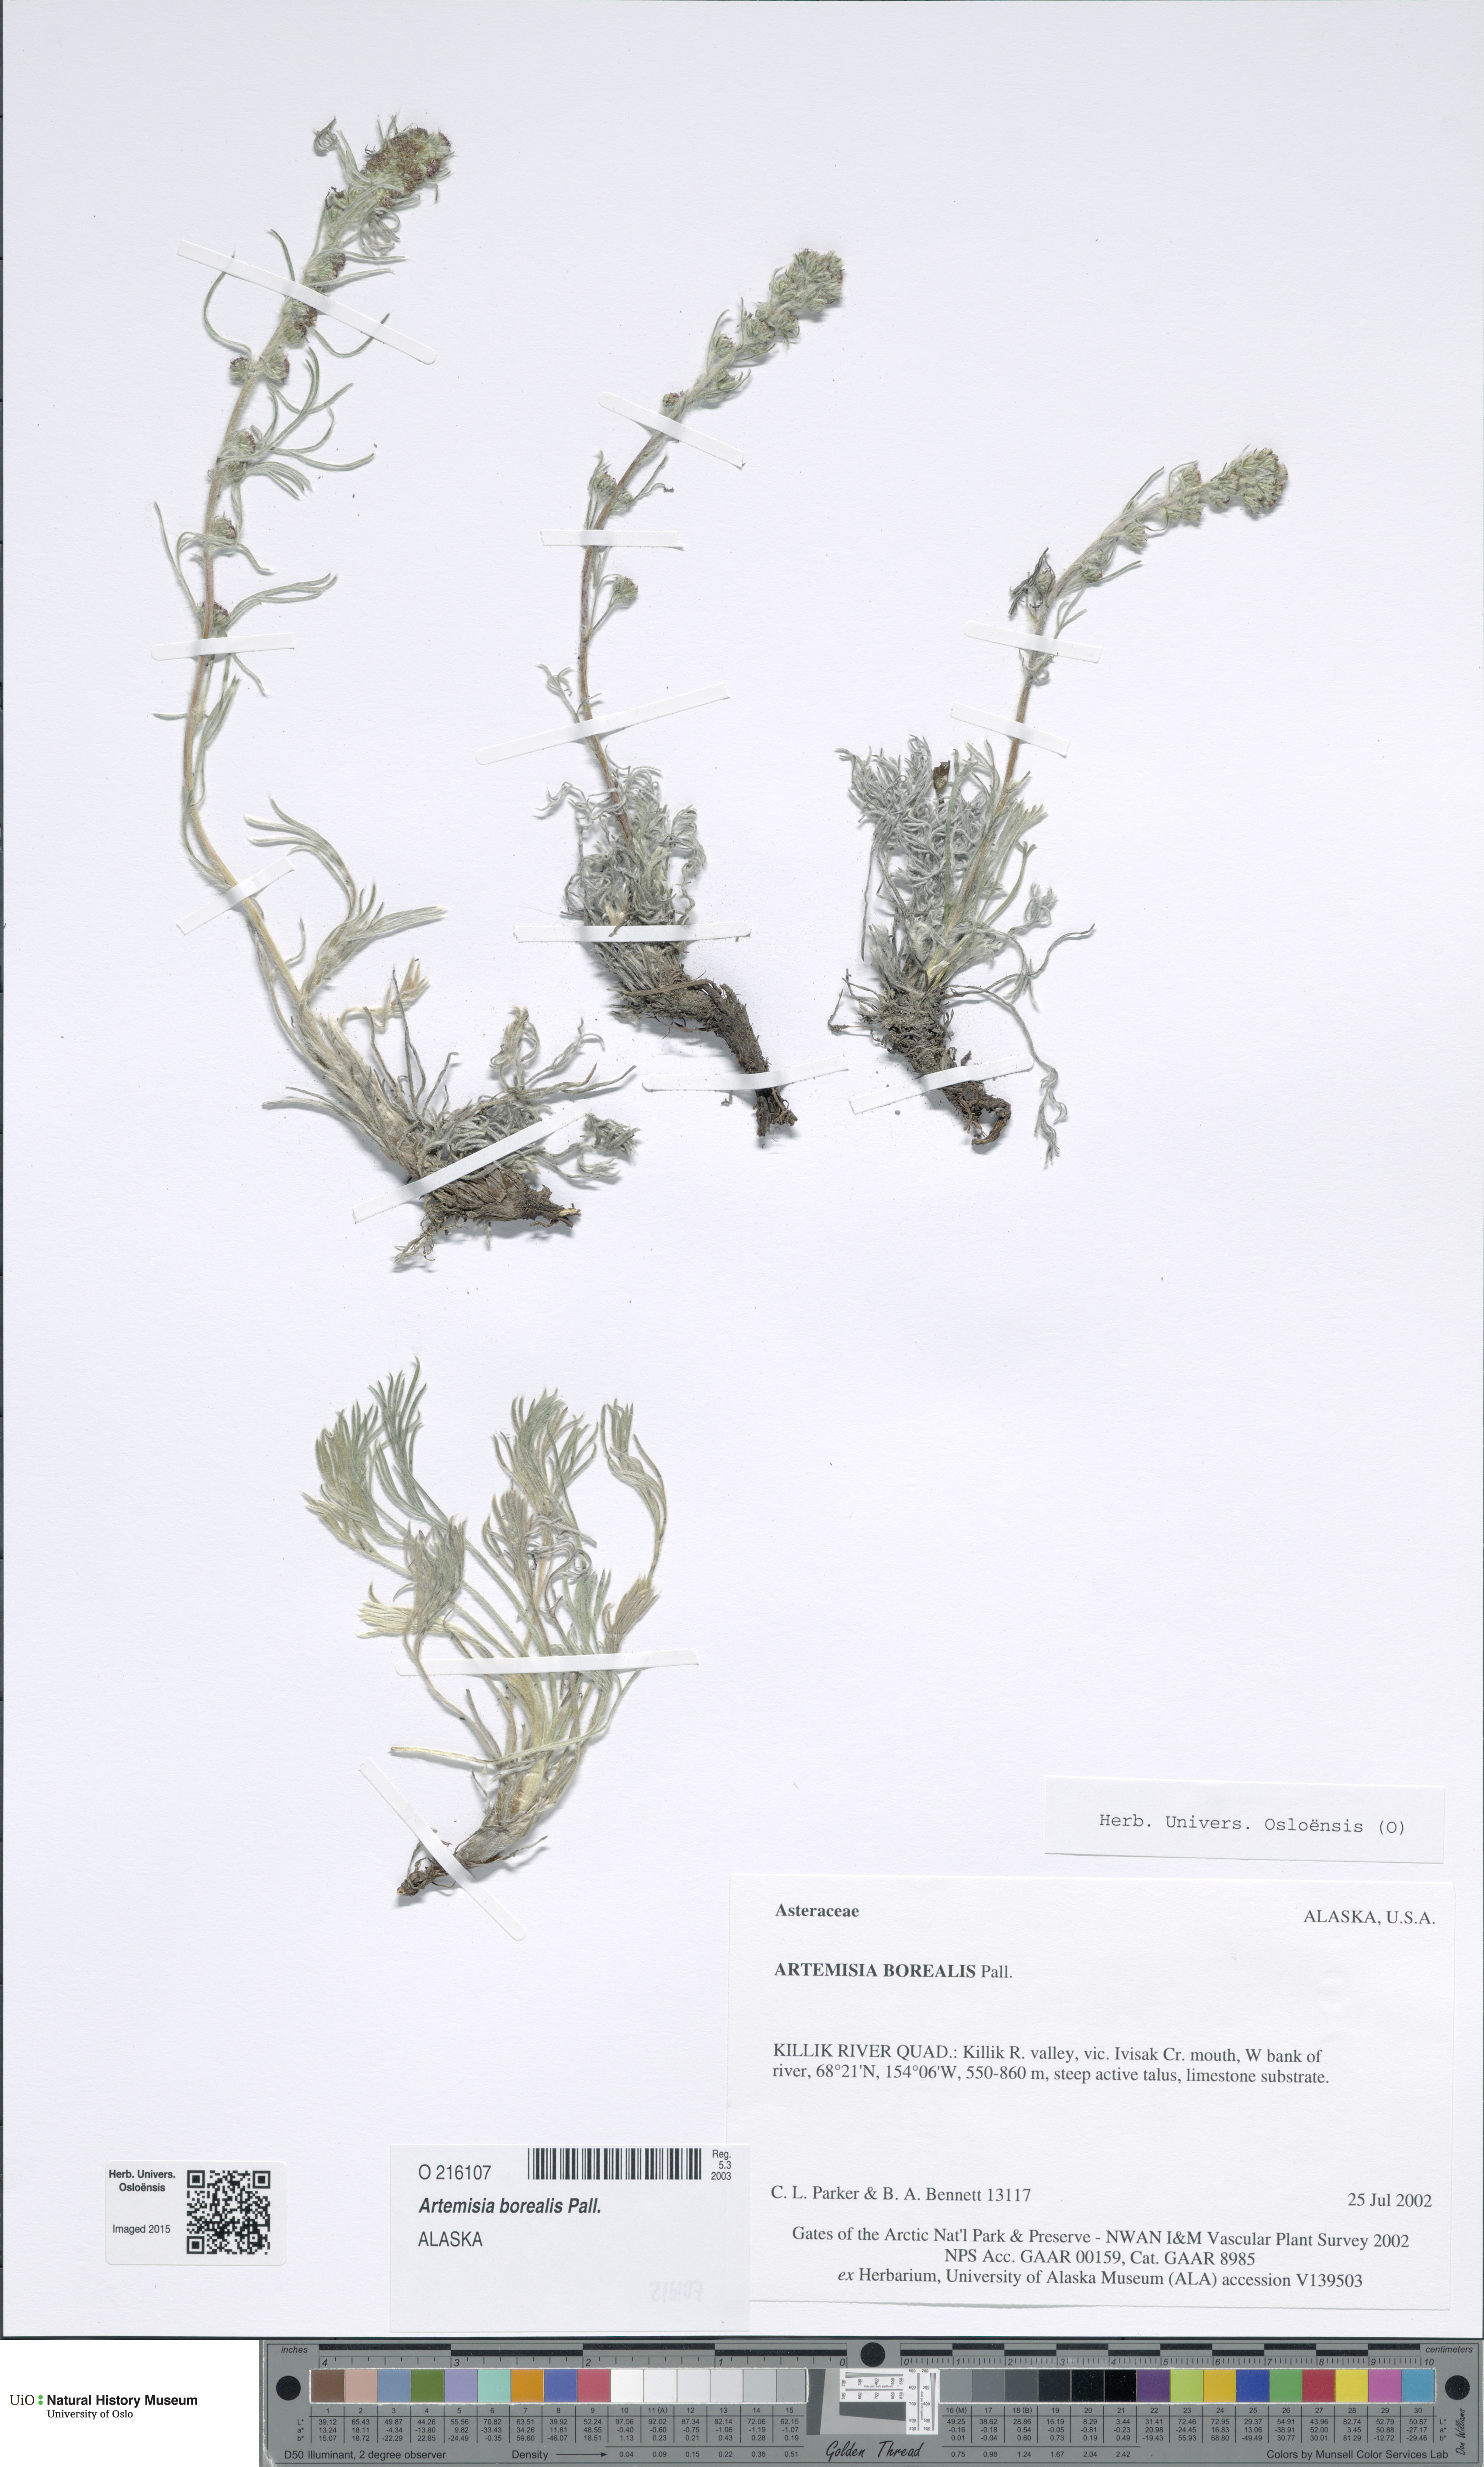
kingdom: Plantae
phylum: Tracheophyta
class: Magnoliopsida
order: Asterales
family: Asteraceae
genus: Artemisia
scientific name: Artemisia borealis
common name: Boreal sage
